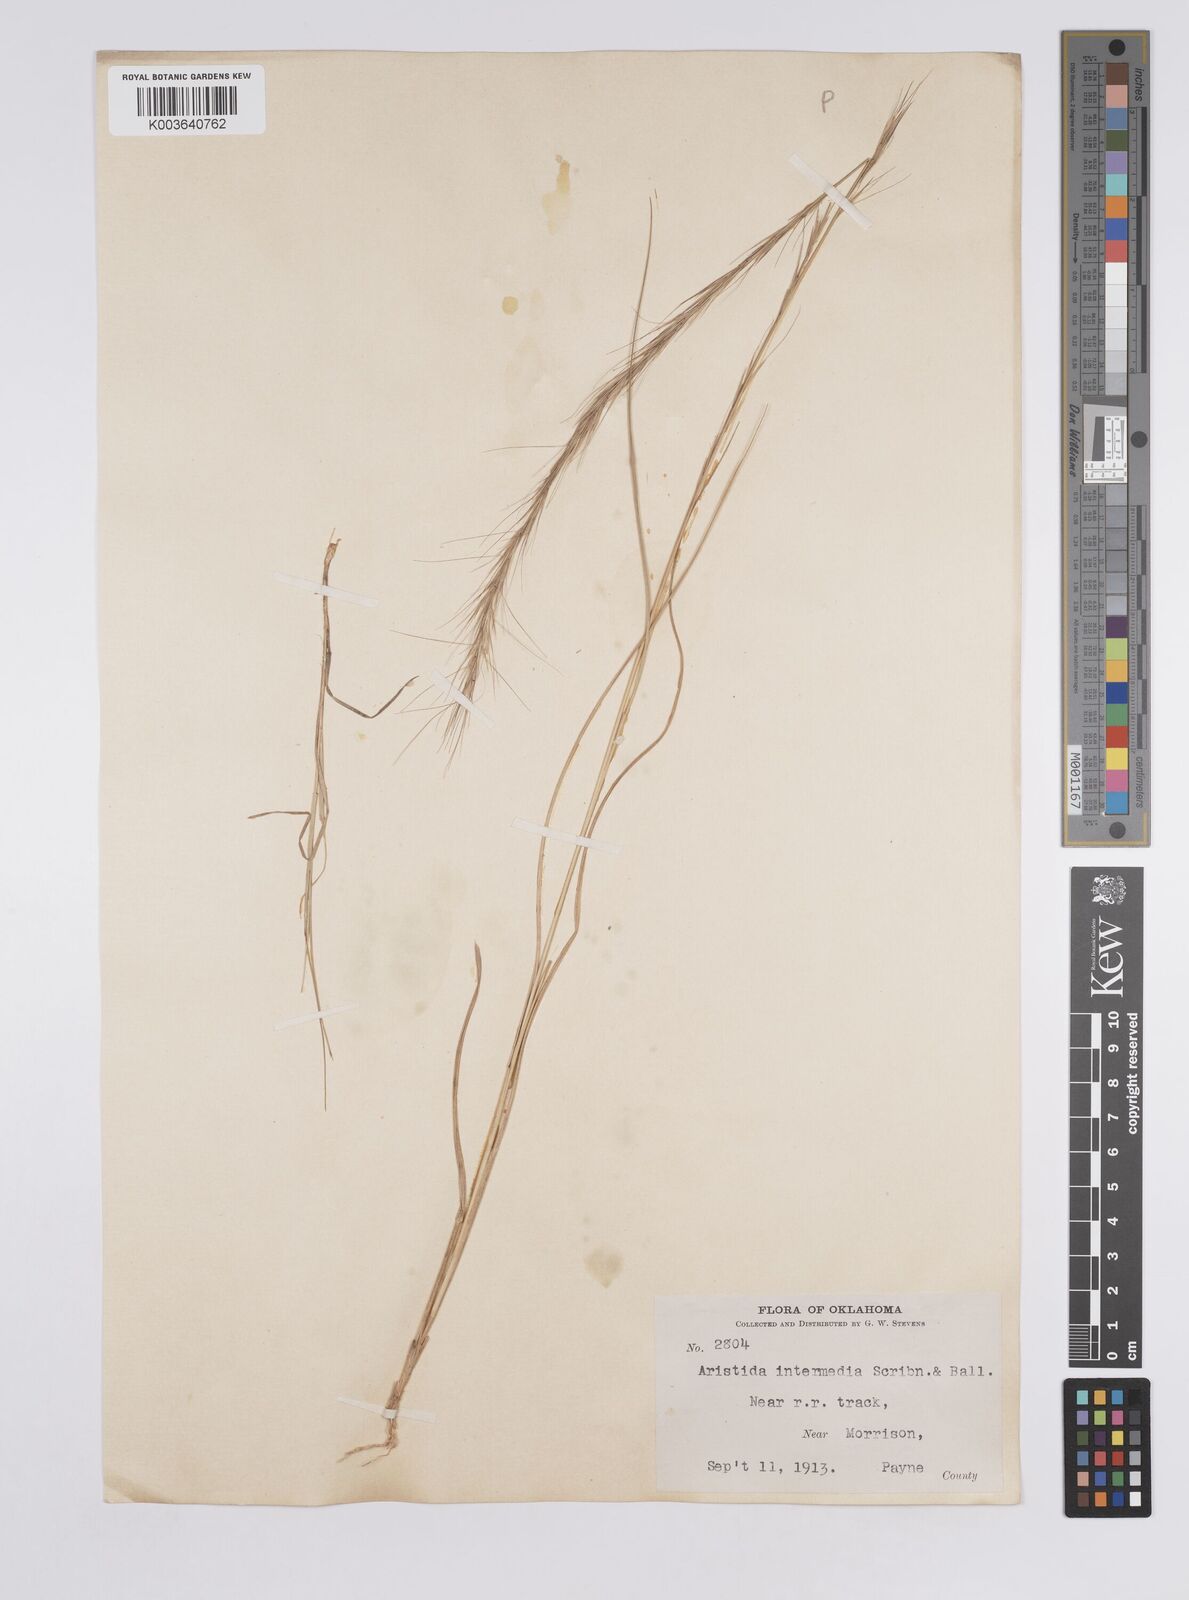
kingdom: Plantae
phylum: Tracheophyta
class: Liliopsida
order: Poales
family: Poaceae
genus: Aristida
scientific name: Aristida adscensionis
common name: Sixweeks threeawn
